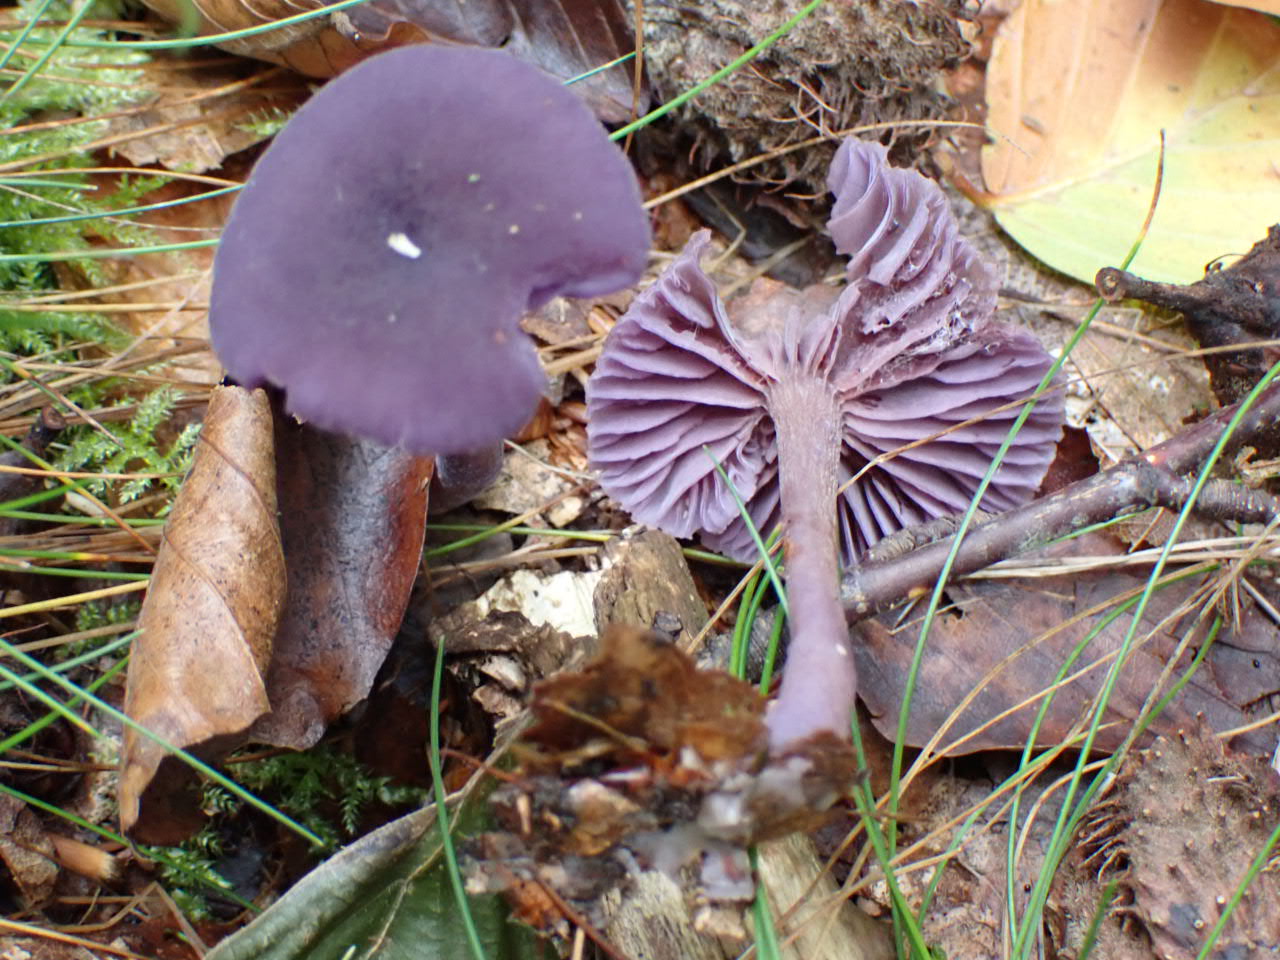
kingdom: Fungi
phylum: Basidiomycota
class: Agaricomycetes
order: Agaricales
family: Hydnangiaceae
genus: Laccaria
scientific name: Laccaria amethystina
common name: violet ametysthat
